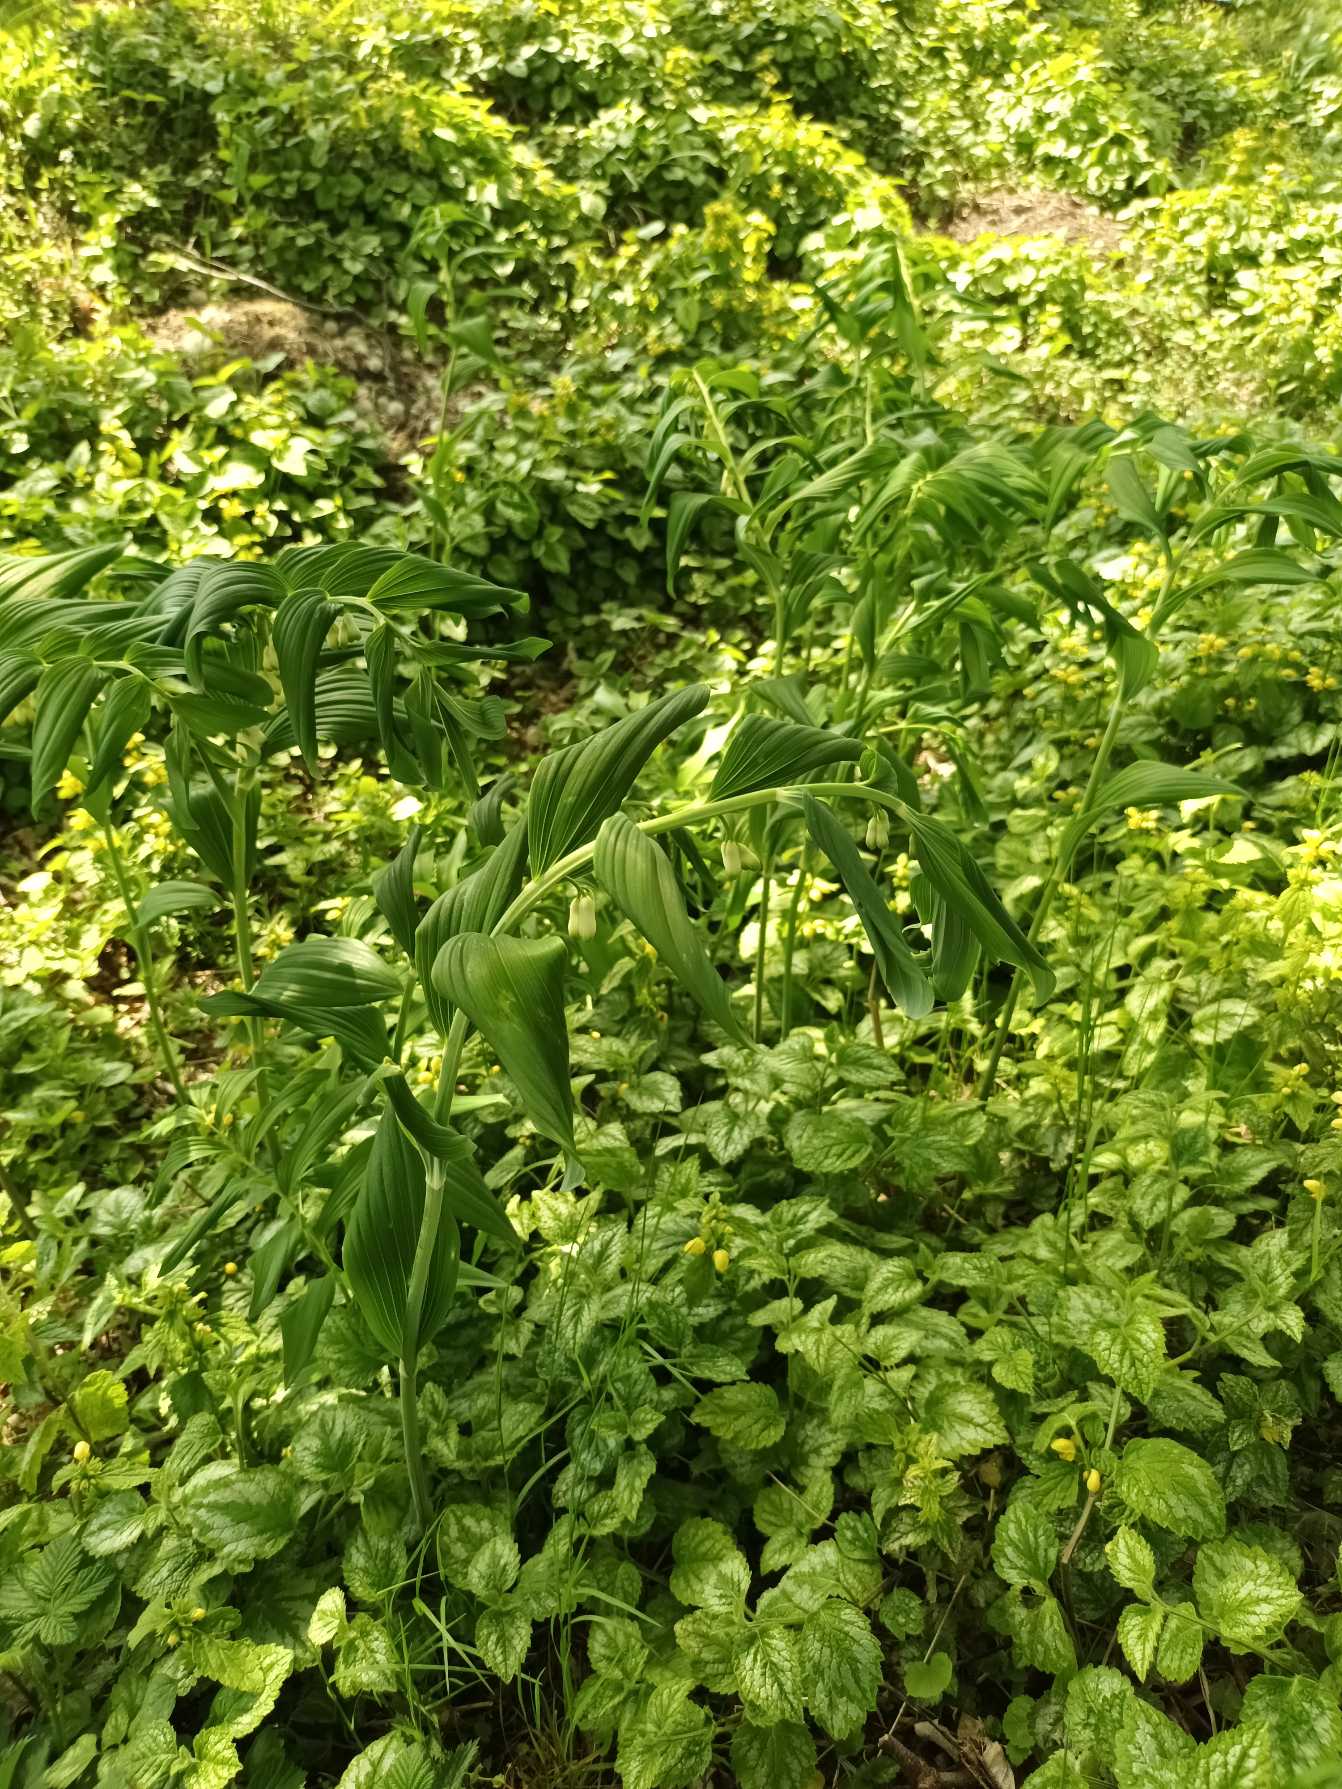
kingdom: Plantae
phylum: Tracheophyta
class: Liliopsida
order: Asparagales
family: Asparagaceae
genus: Polygonatum
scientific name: Polygonatum
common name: Hybrid-konval
